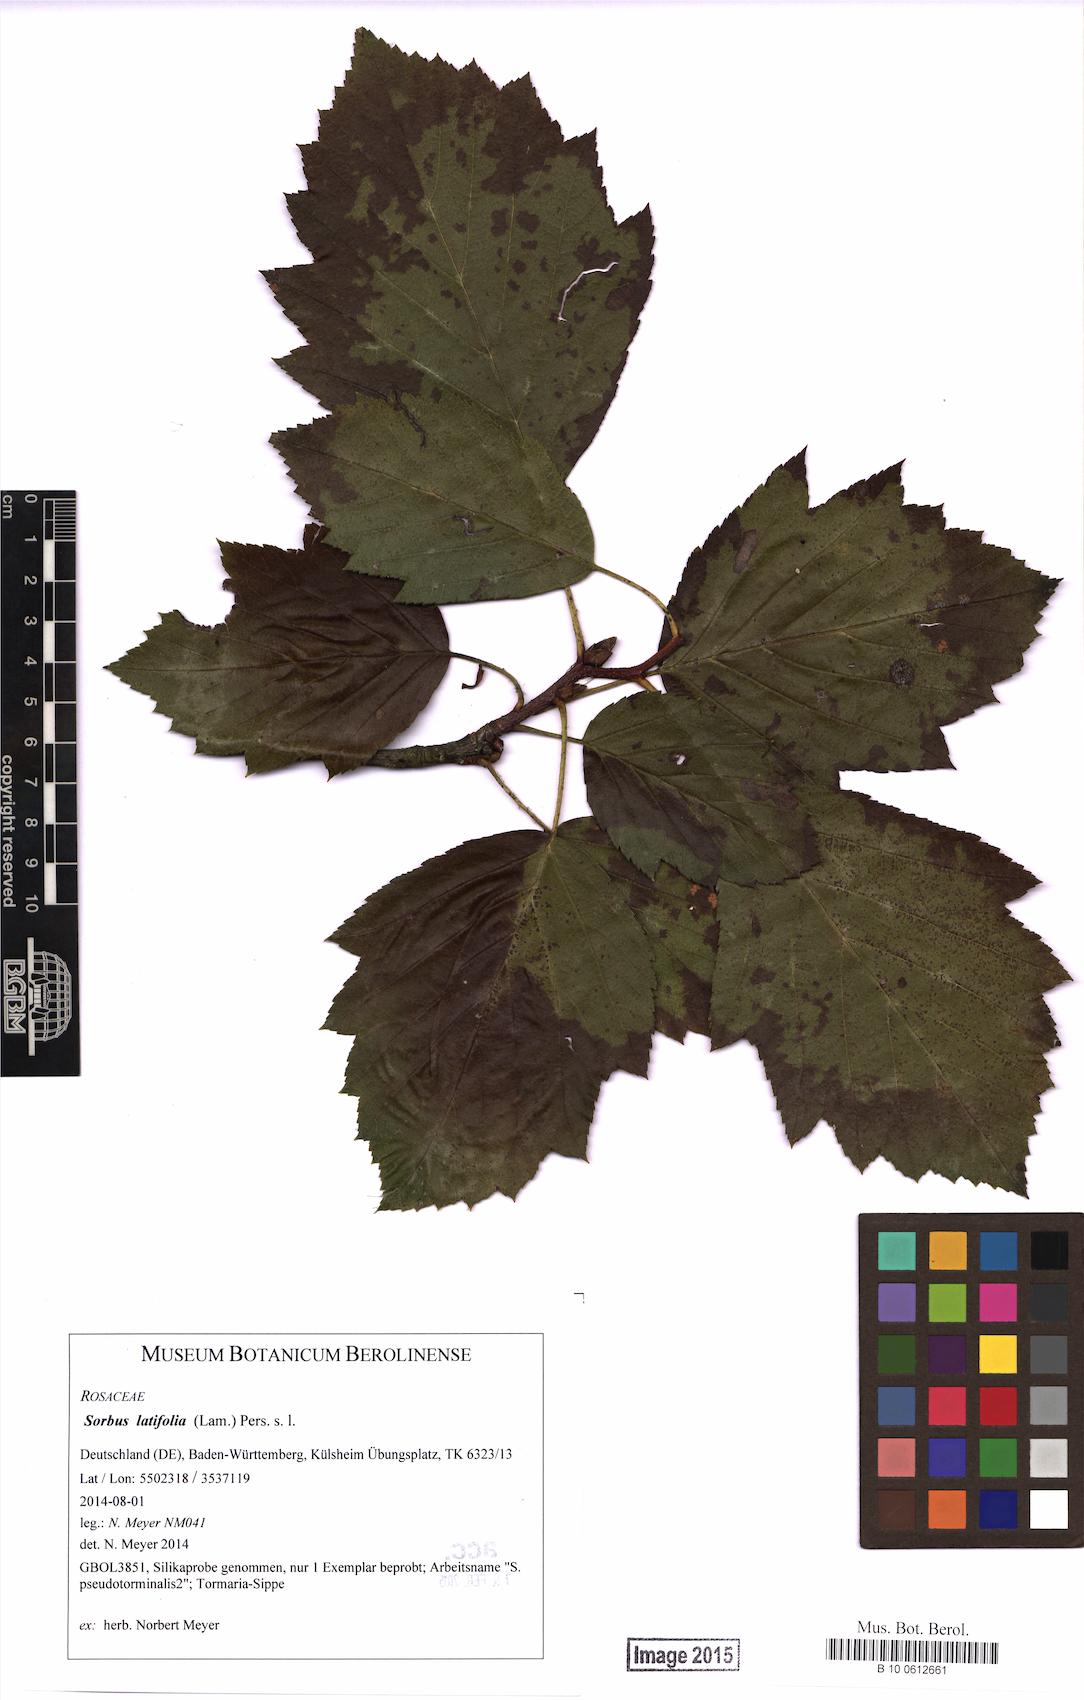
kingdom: Plantae
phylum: Tracheophyta
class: Magnoliopsida
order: Rosales
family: Rosaceae
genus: Karpatiosorbus
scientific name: Karpatiosorbus latifolia
